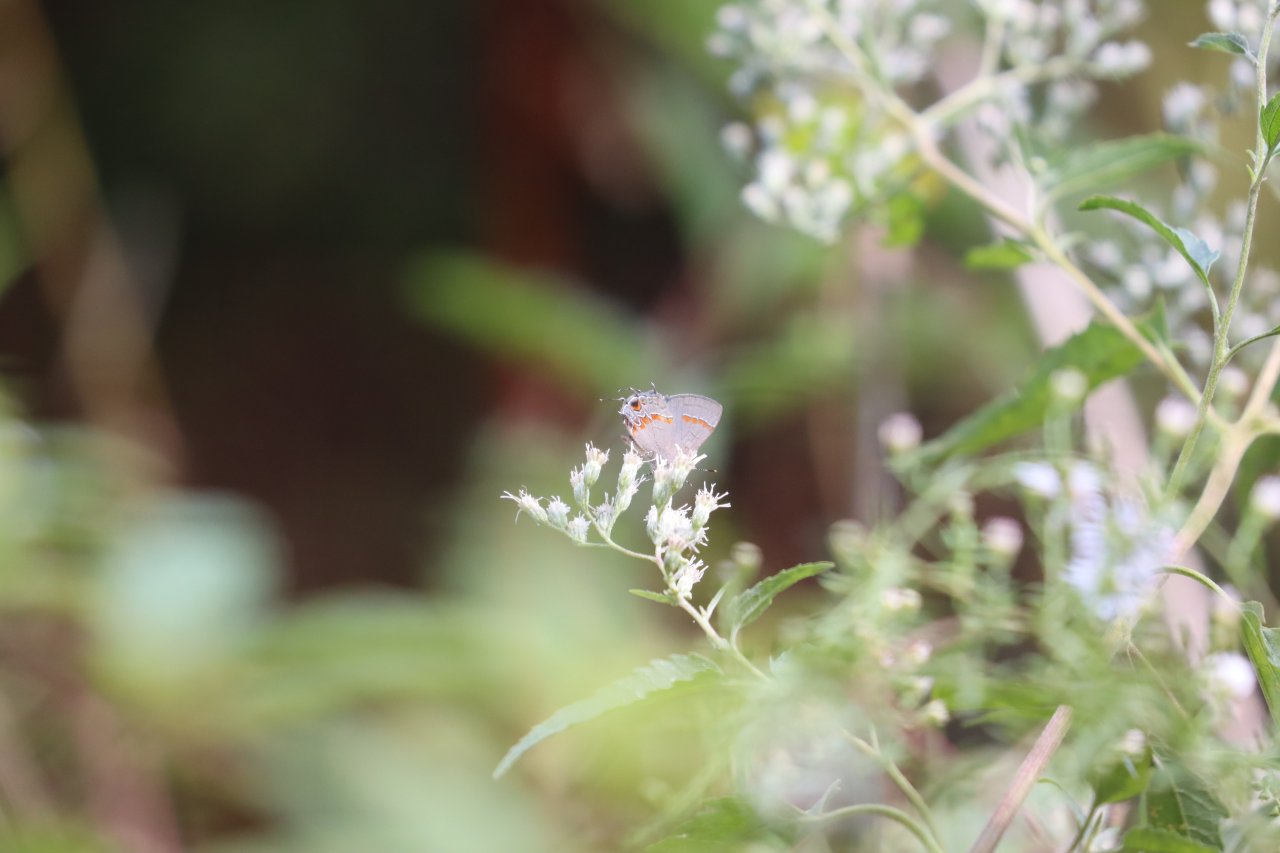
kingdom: Animalia
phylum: Arthropoda
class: Insecta
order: Lepidoptera
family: Lycaenidae
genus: Calycopis
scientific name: Calycopis cecrops
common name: Red-banded Hairstreak
